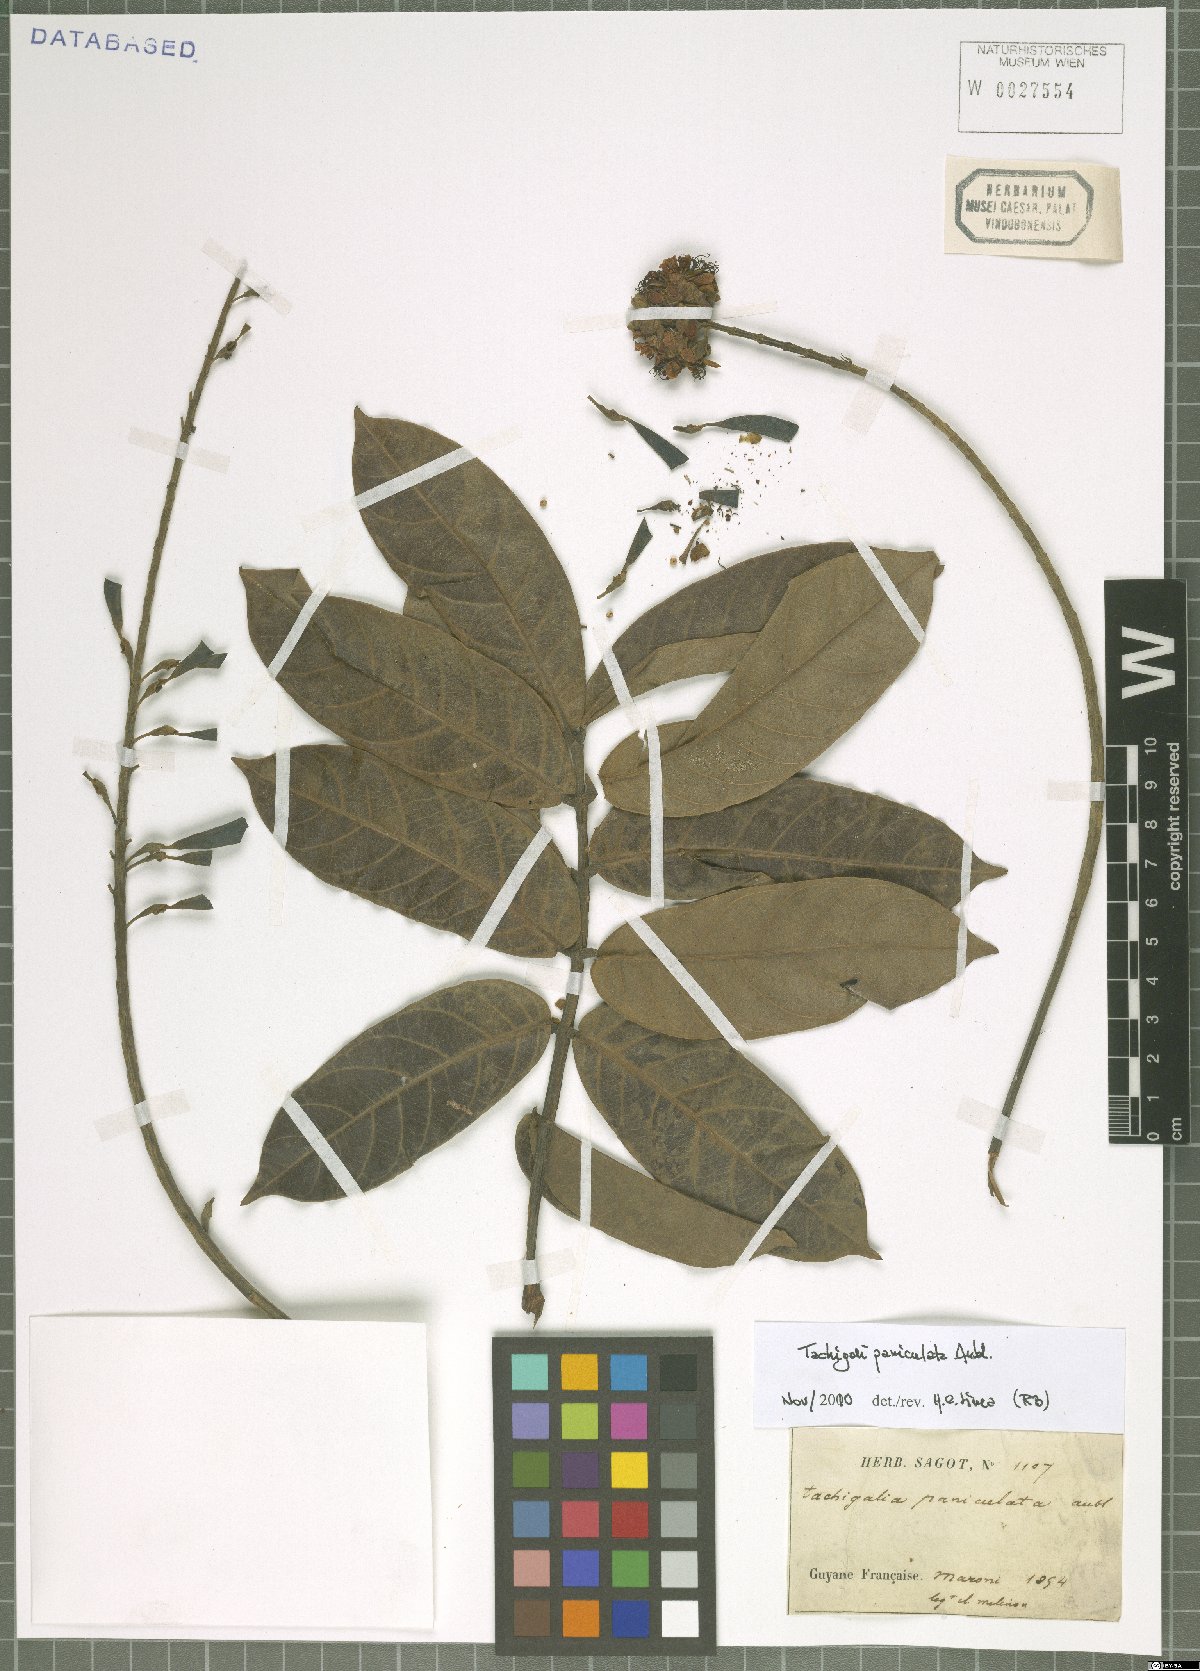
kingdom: Plantae
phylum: Tracheophyta
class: Magnoliopsida
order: Fabales
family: Fabaceae
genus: Tachigali
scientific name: Tachigali paniculata
